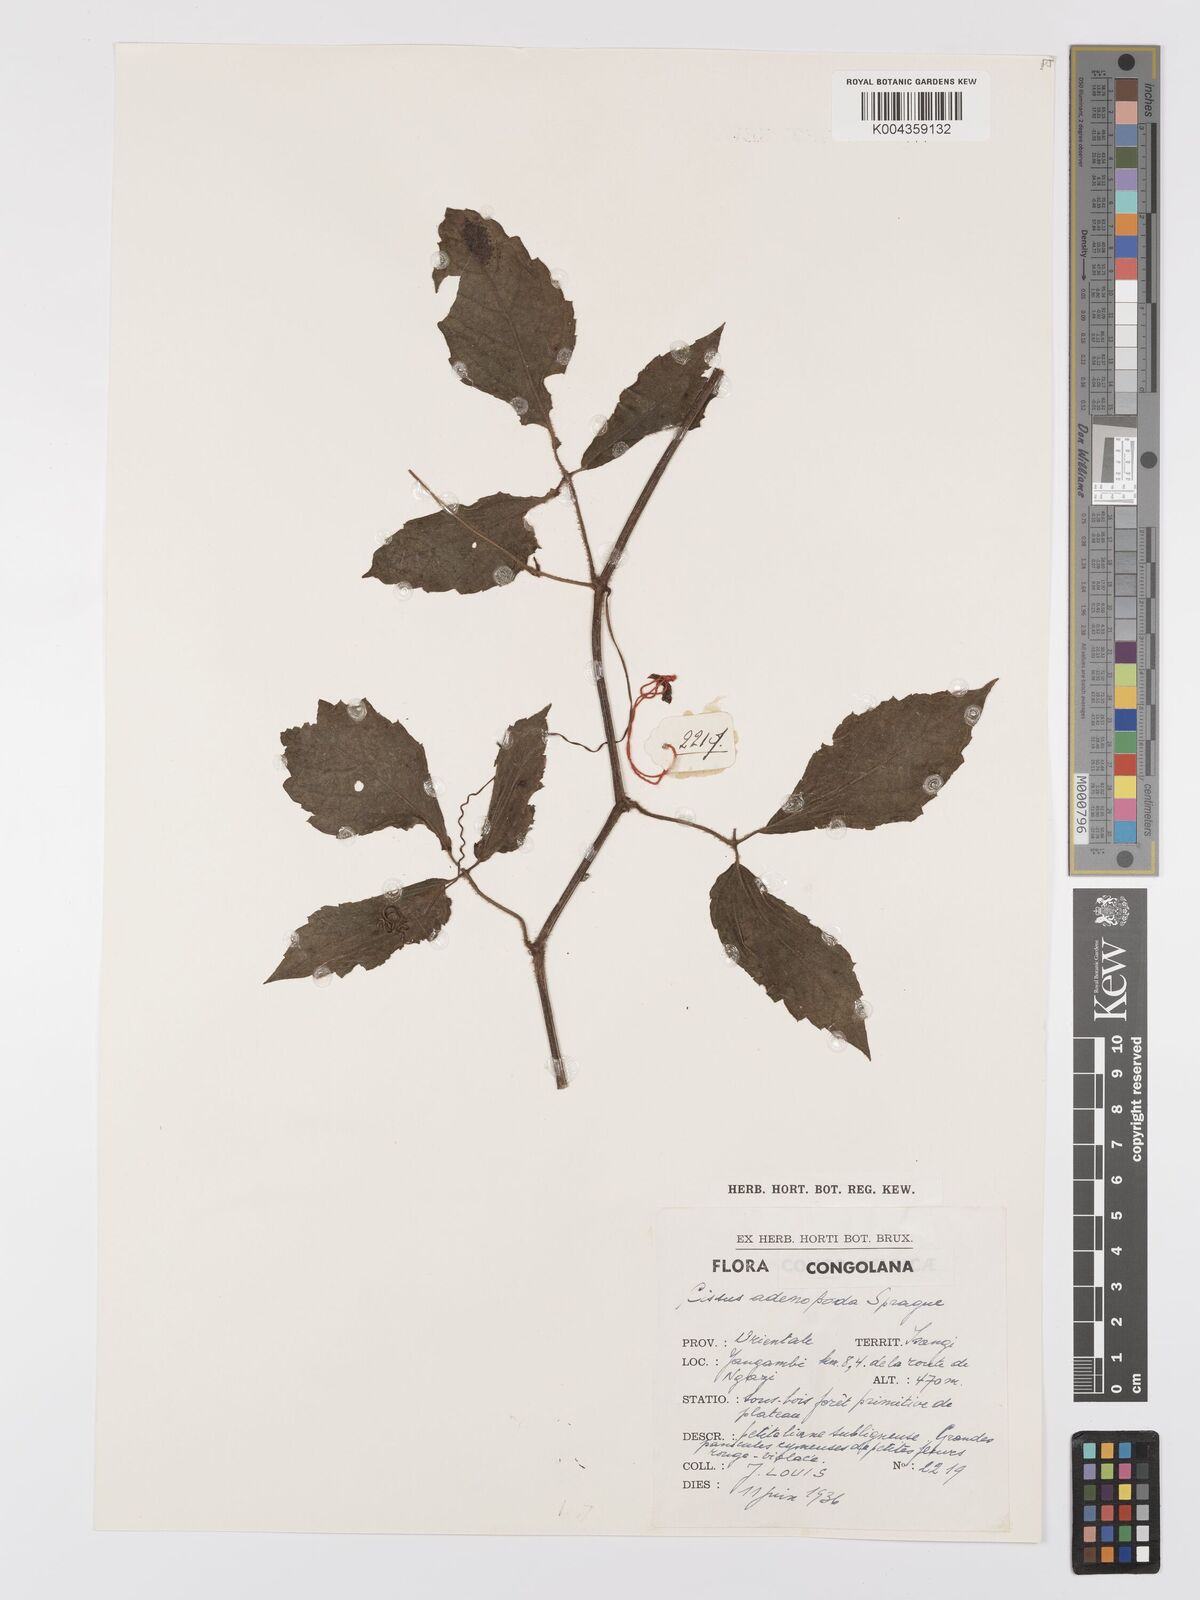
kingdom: Plantae
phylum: Tracheophyta
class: Magnoliopsida
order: Vitales
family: Vitaceae
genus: Cyphostemma
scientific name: Cyphostemma adenopodum
